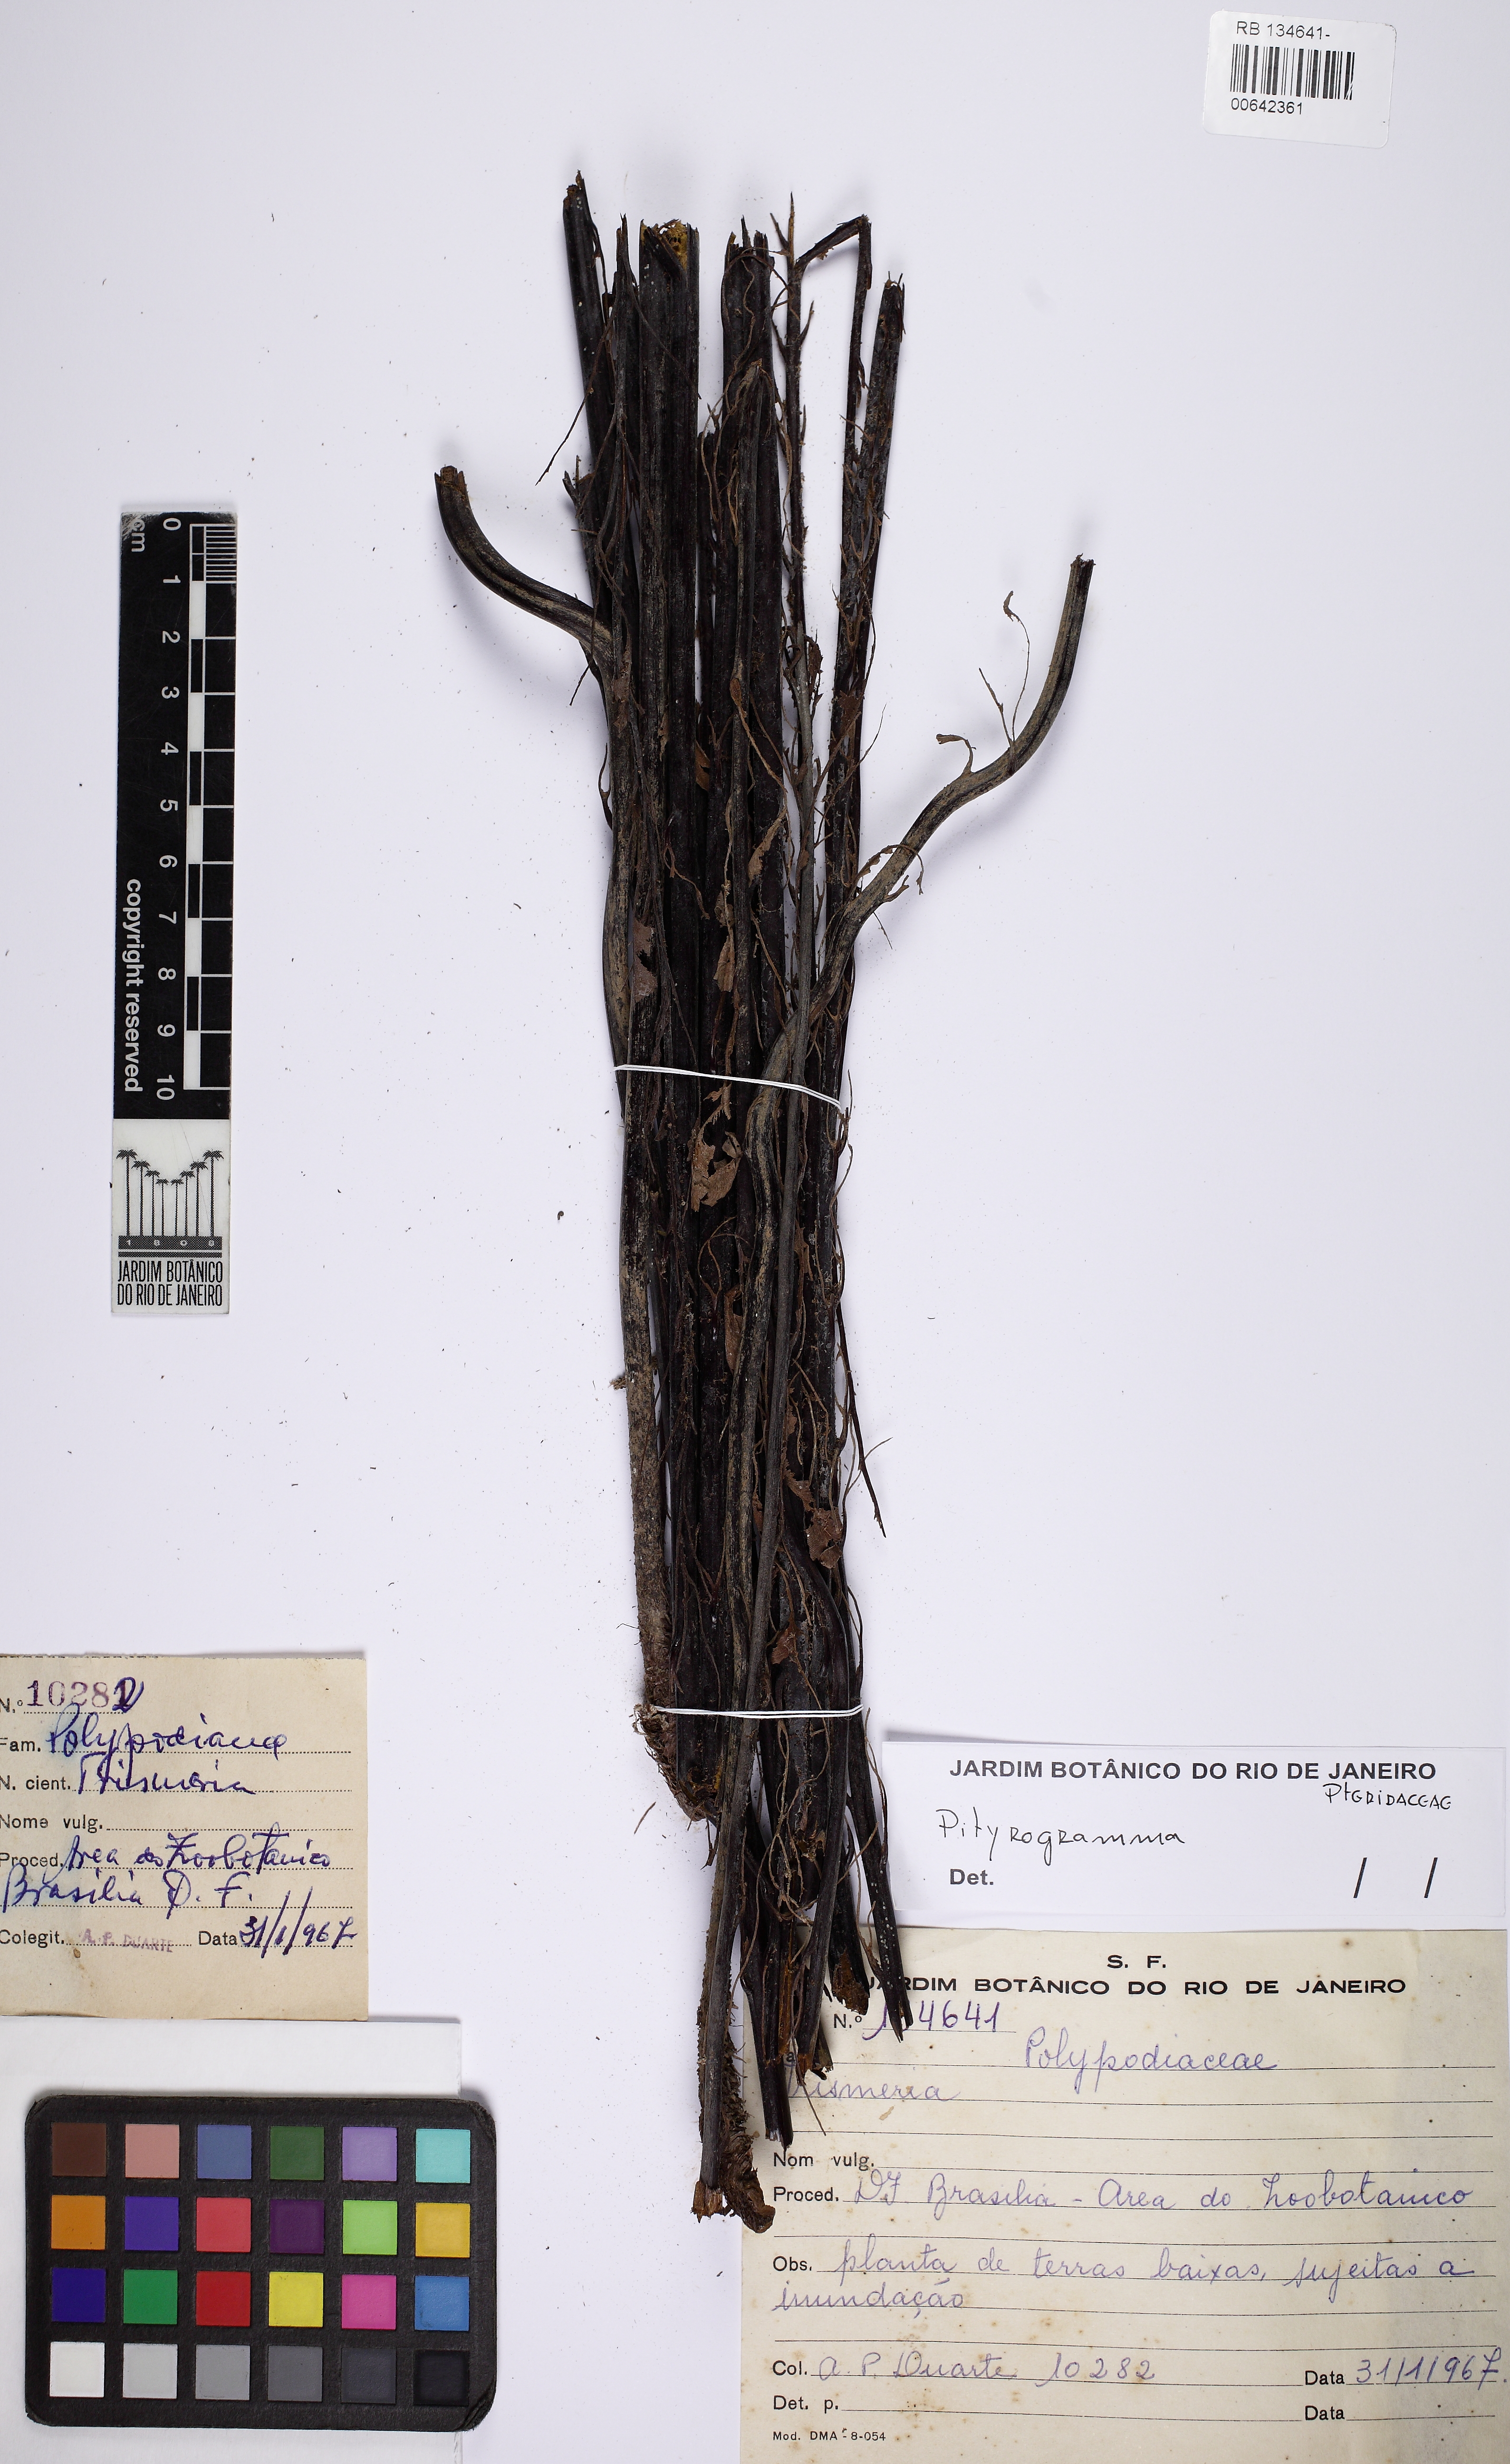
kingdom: Plantae
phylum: Tracheophyta
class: Polypodiopsida
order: Polypodiales
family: Pteridaceae
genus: Pityrogramma
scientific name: Pityrogramma
